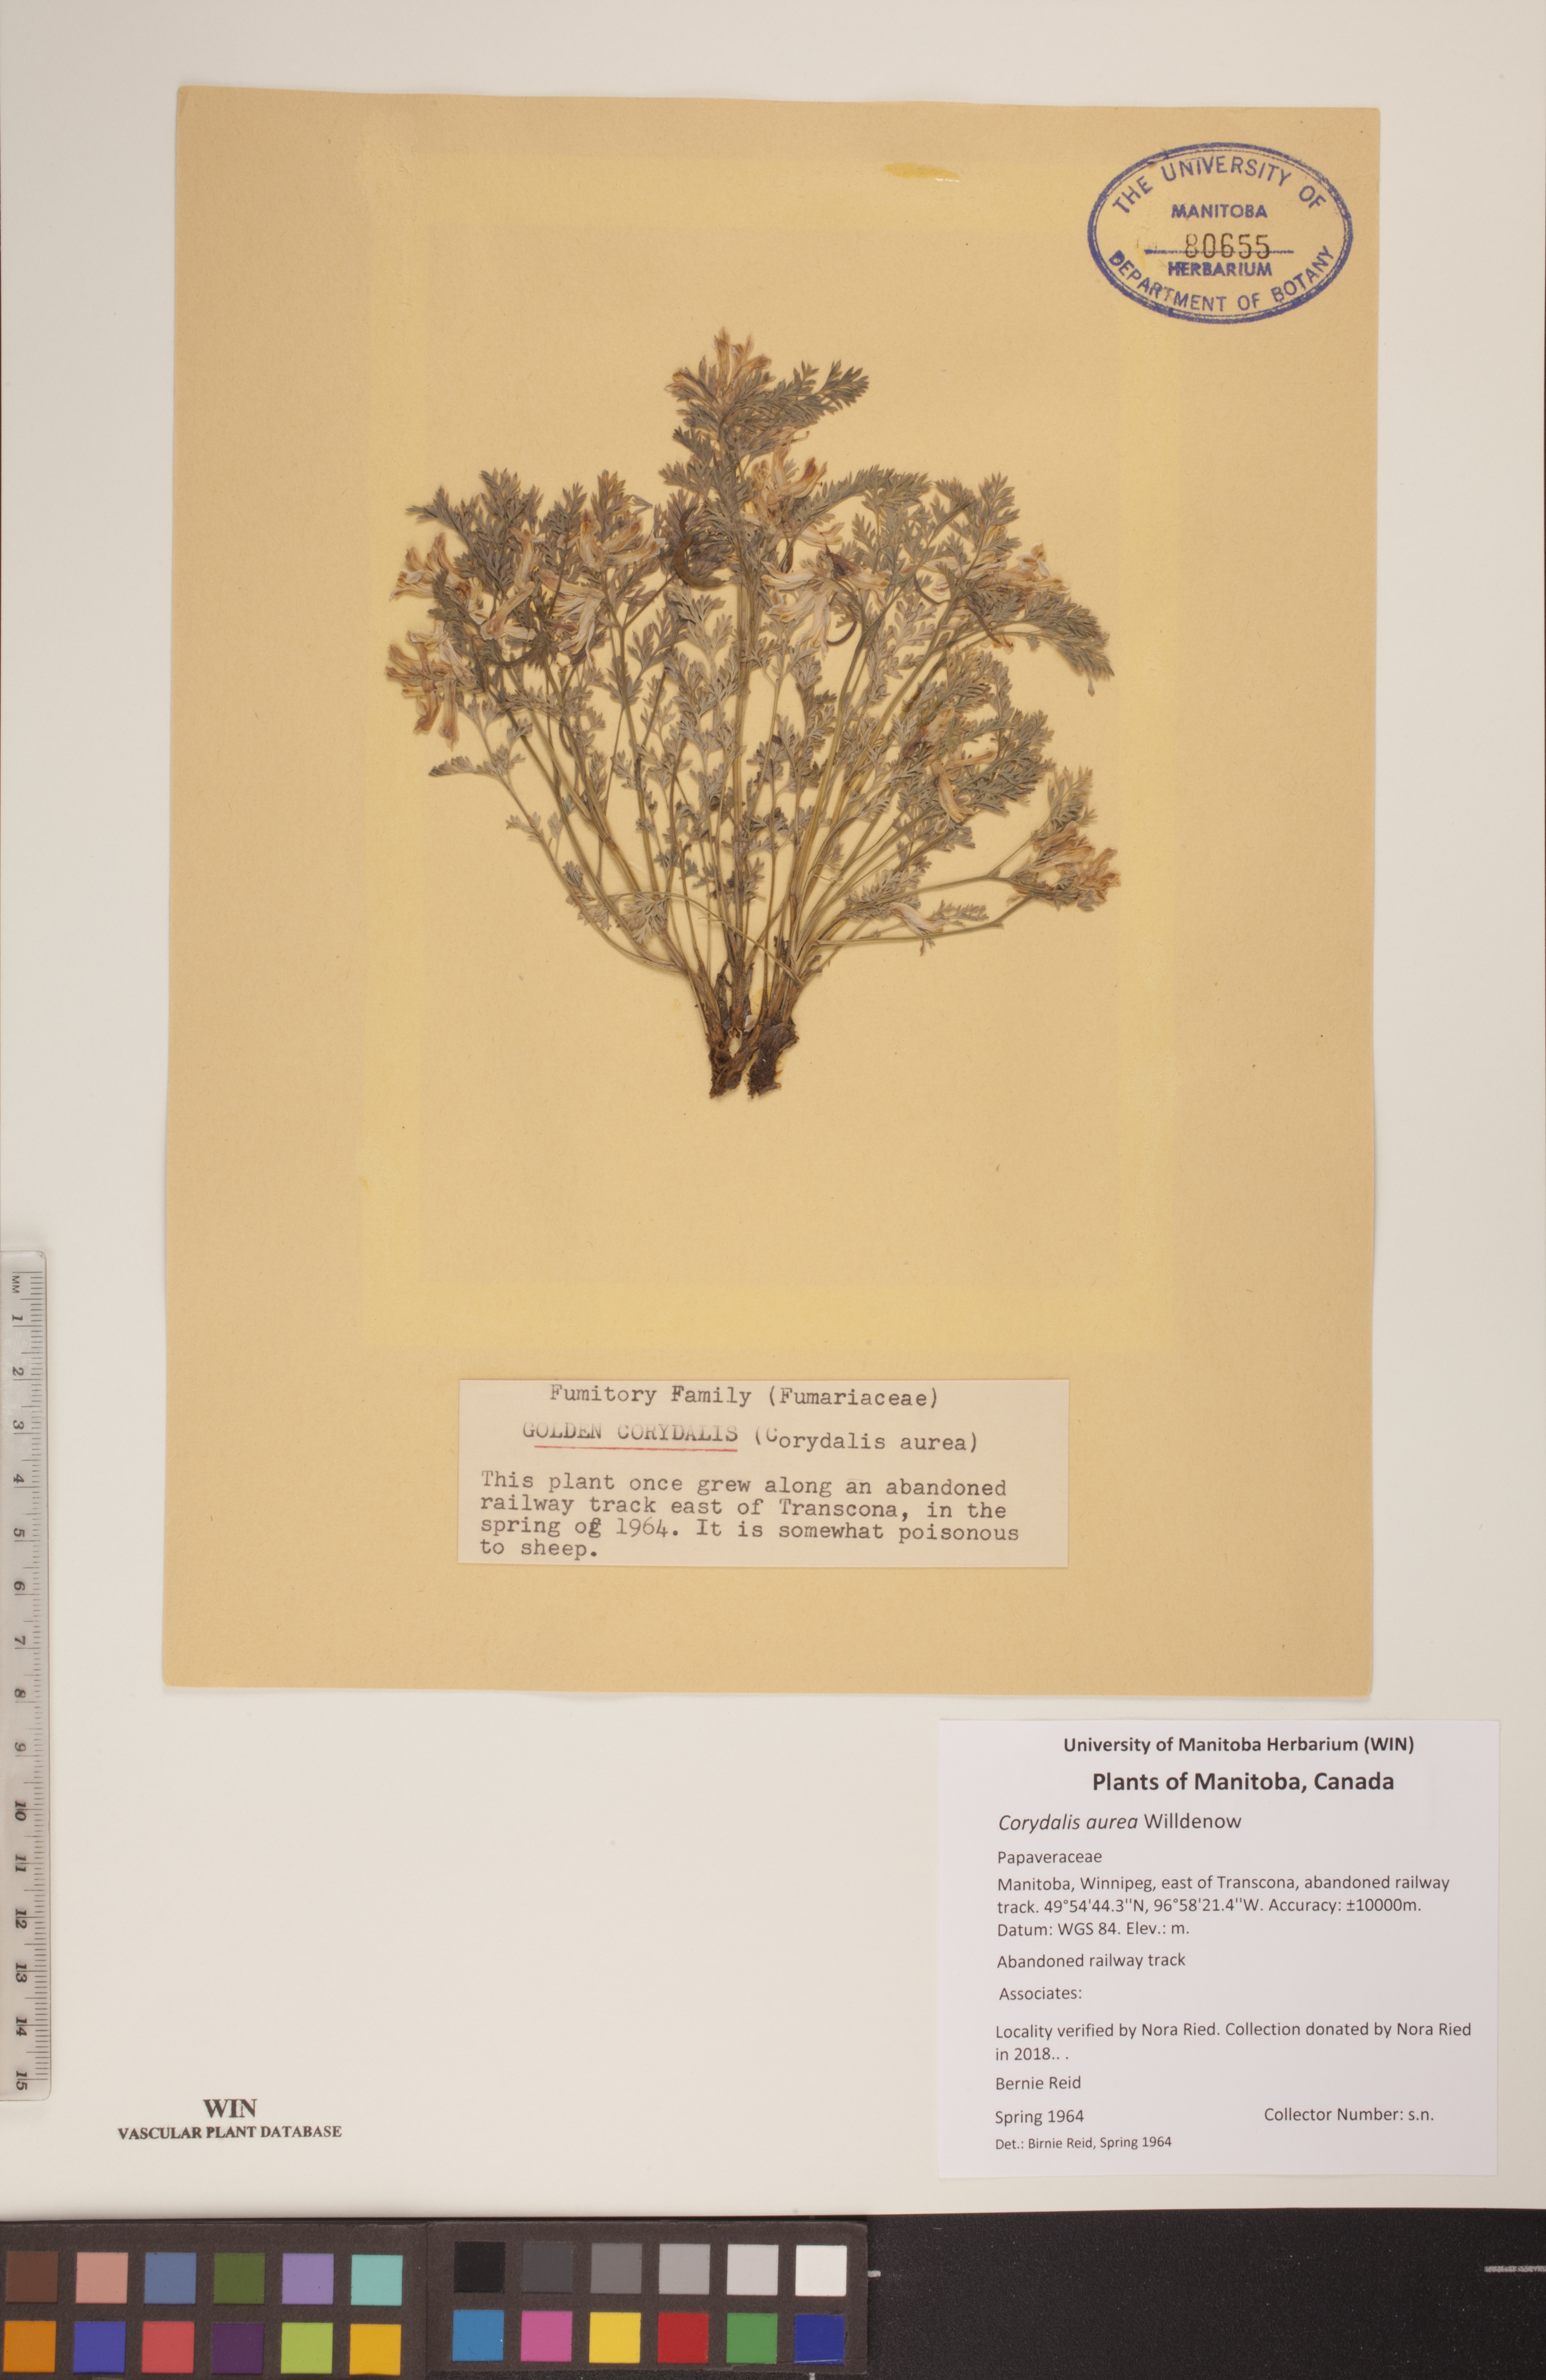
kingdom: Plantae
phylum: Tracheophyta
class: Magnoliopsida
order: Ranunculales
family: Papaveraceae
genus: Corydalis
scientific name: Corydalis aurea
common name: Golden corydalis
